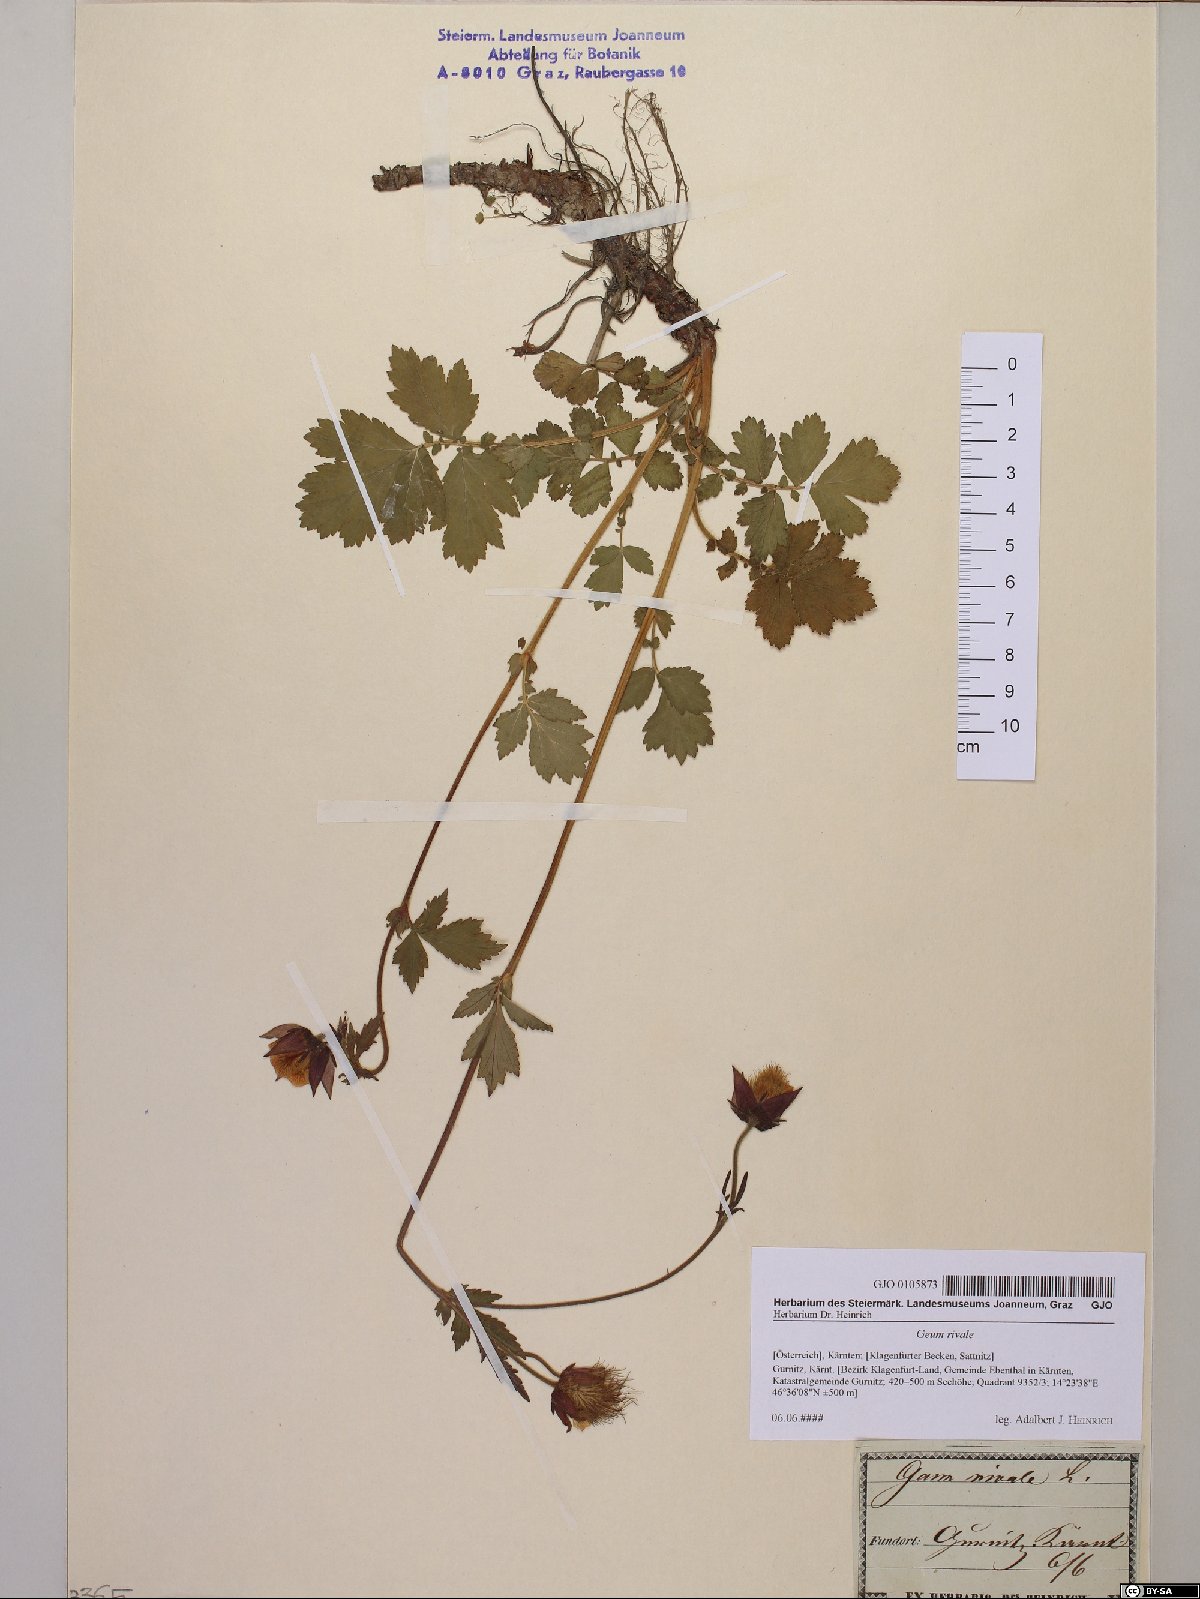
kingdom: Plantae
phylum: Tracheophyta
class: Magnoliopsida
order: Rosales
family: Rosaceae
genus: Geum
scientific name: Geum rivale
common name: Water avens
